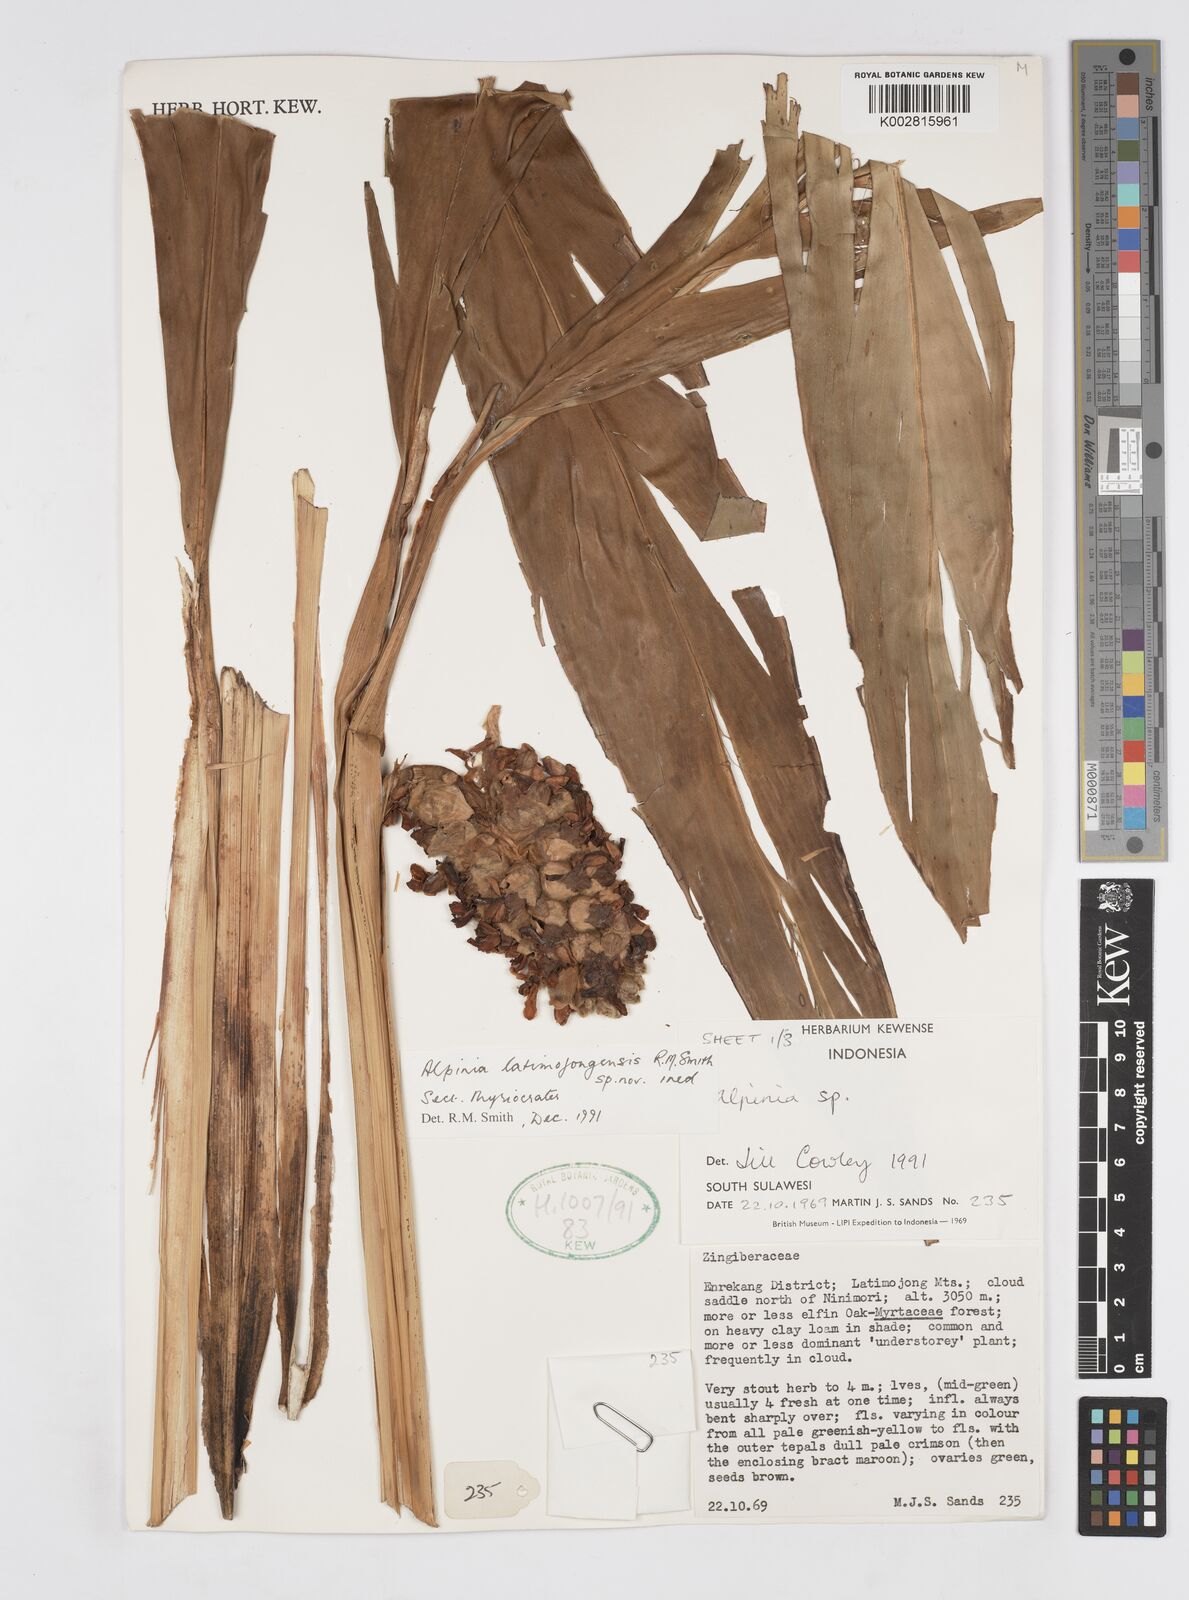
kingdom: Plantae
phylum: Tracheophyta
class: Liliopsida
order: Zingiberales
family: Zingiberaceae
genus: Alpinia
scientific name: Alpinia
